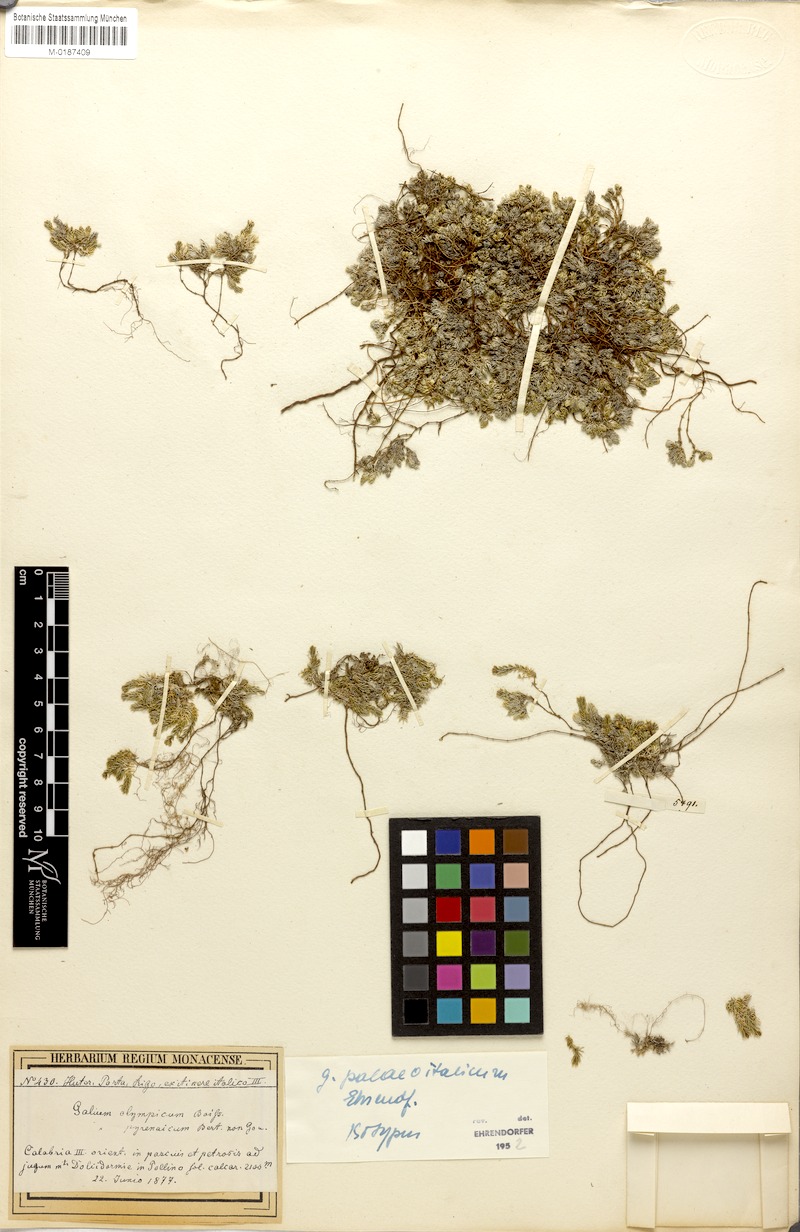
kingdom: Plantae
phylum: Tracheophyta
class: Magnoliopsida
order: Gentianales
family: Rubiaceae
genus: Galium
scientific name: Galium palaeoitalicum
